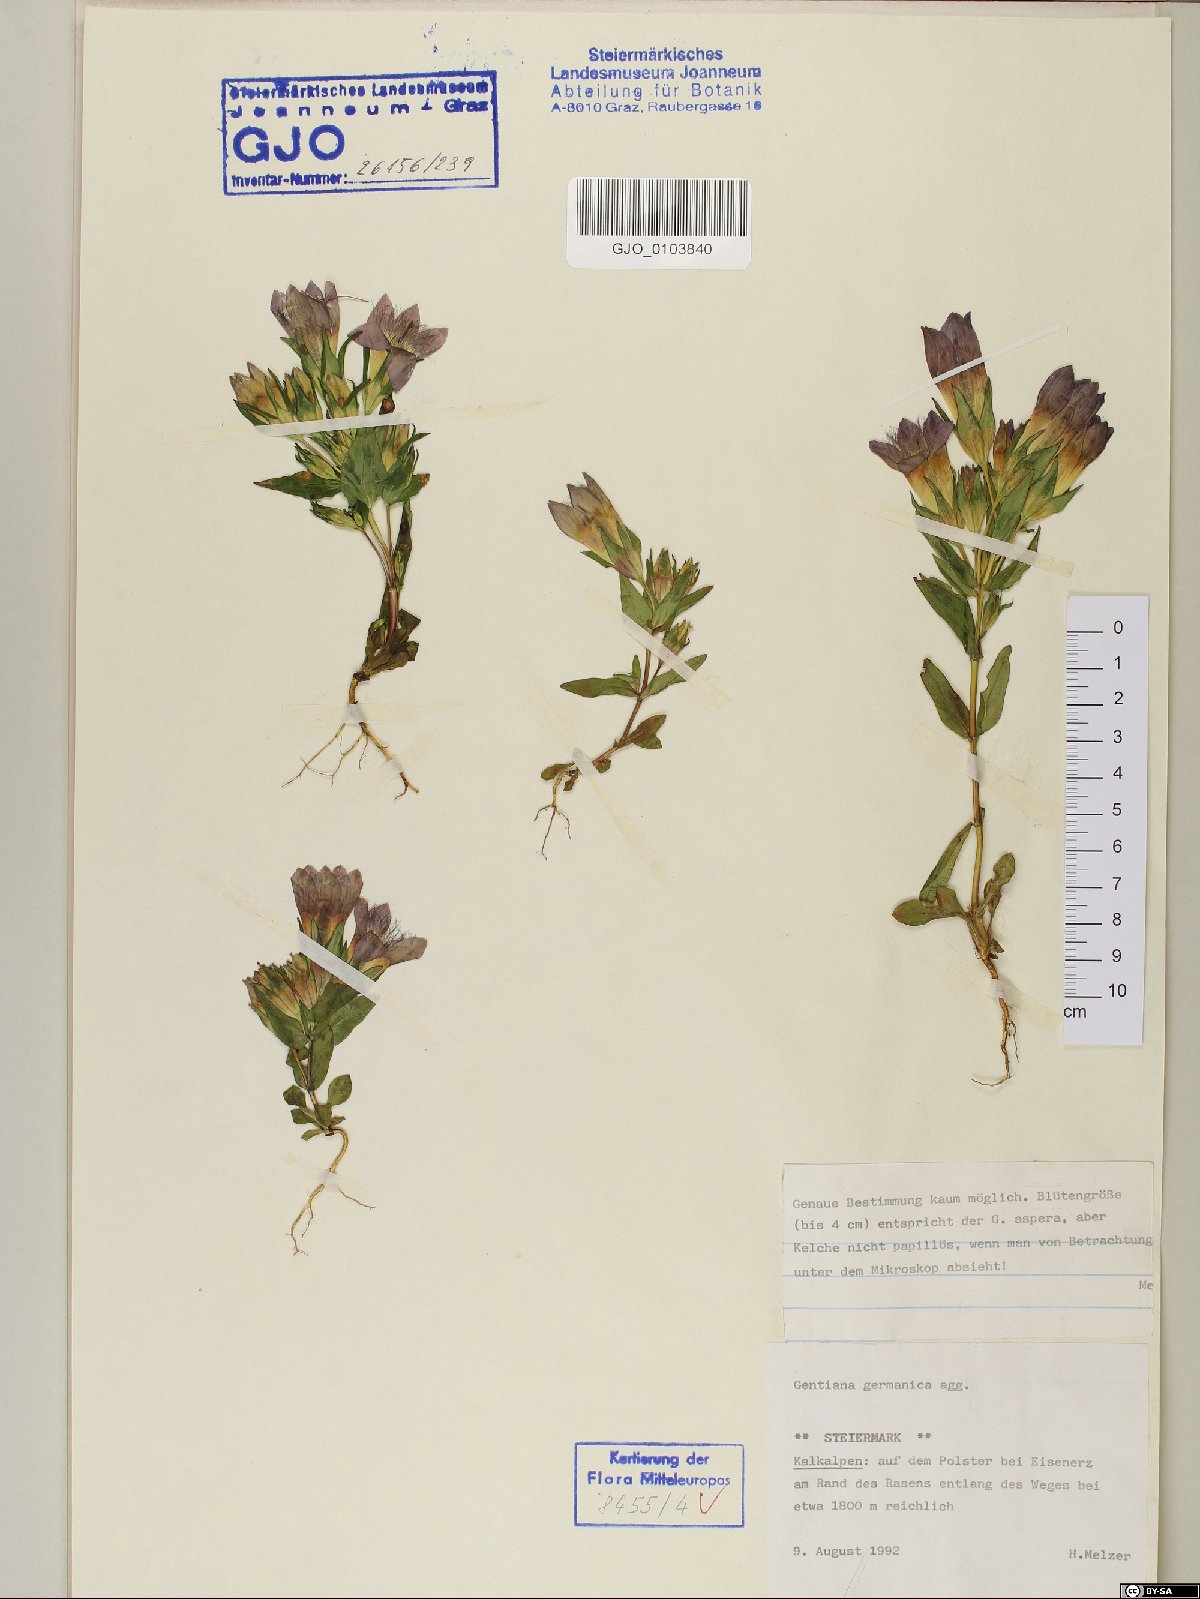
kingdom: Plantae
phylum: Tracheophyta
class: Magnoliopsida
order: Gentianales
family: Gentianaceae
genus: Gentianella
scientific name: Gentianella germanica
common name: Chiltern-gentian
